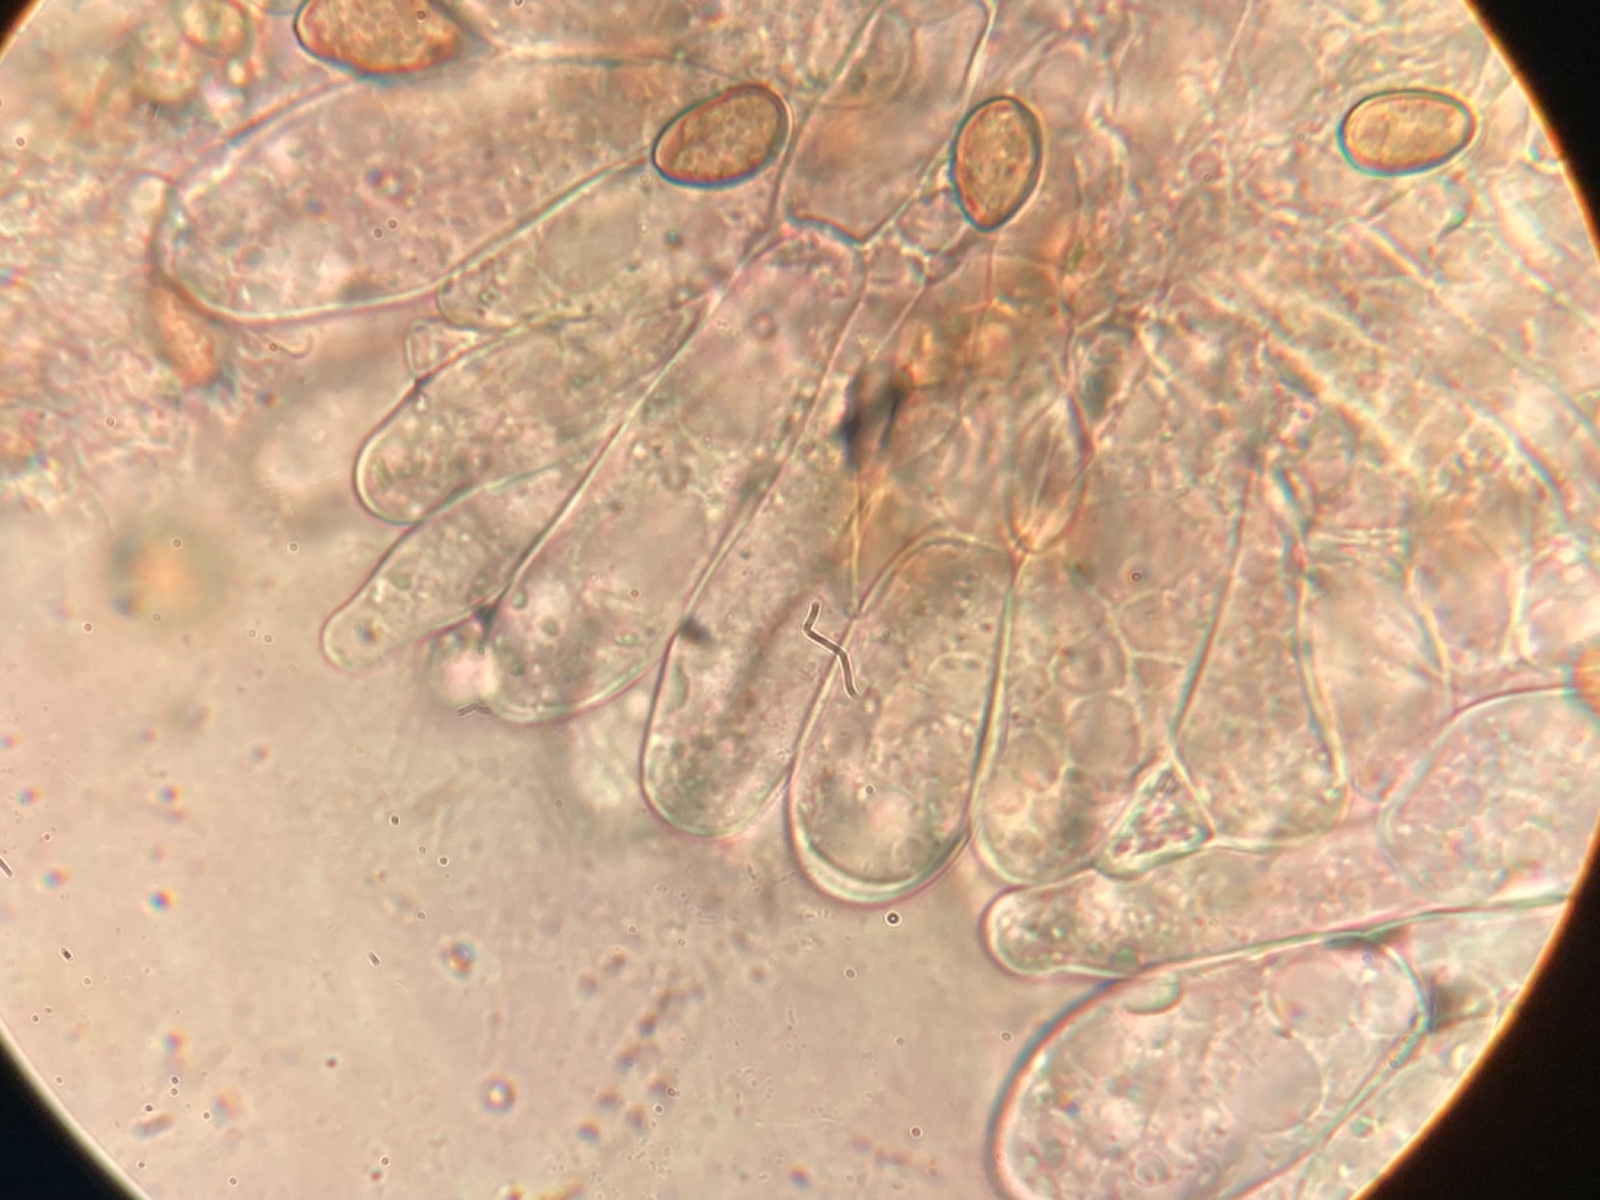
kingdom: Fungi
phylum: Basidiomycota
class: Agaricomycetes
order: Agaricales
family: Inocybaceae
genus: Pseudosperma
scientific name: Pseudosperma
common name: trævlhat
